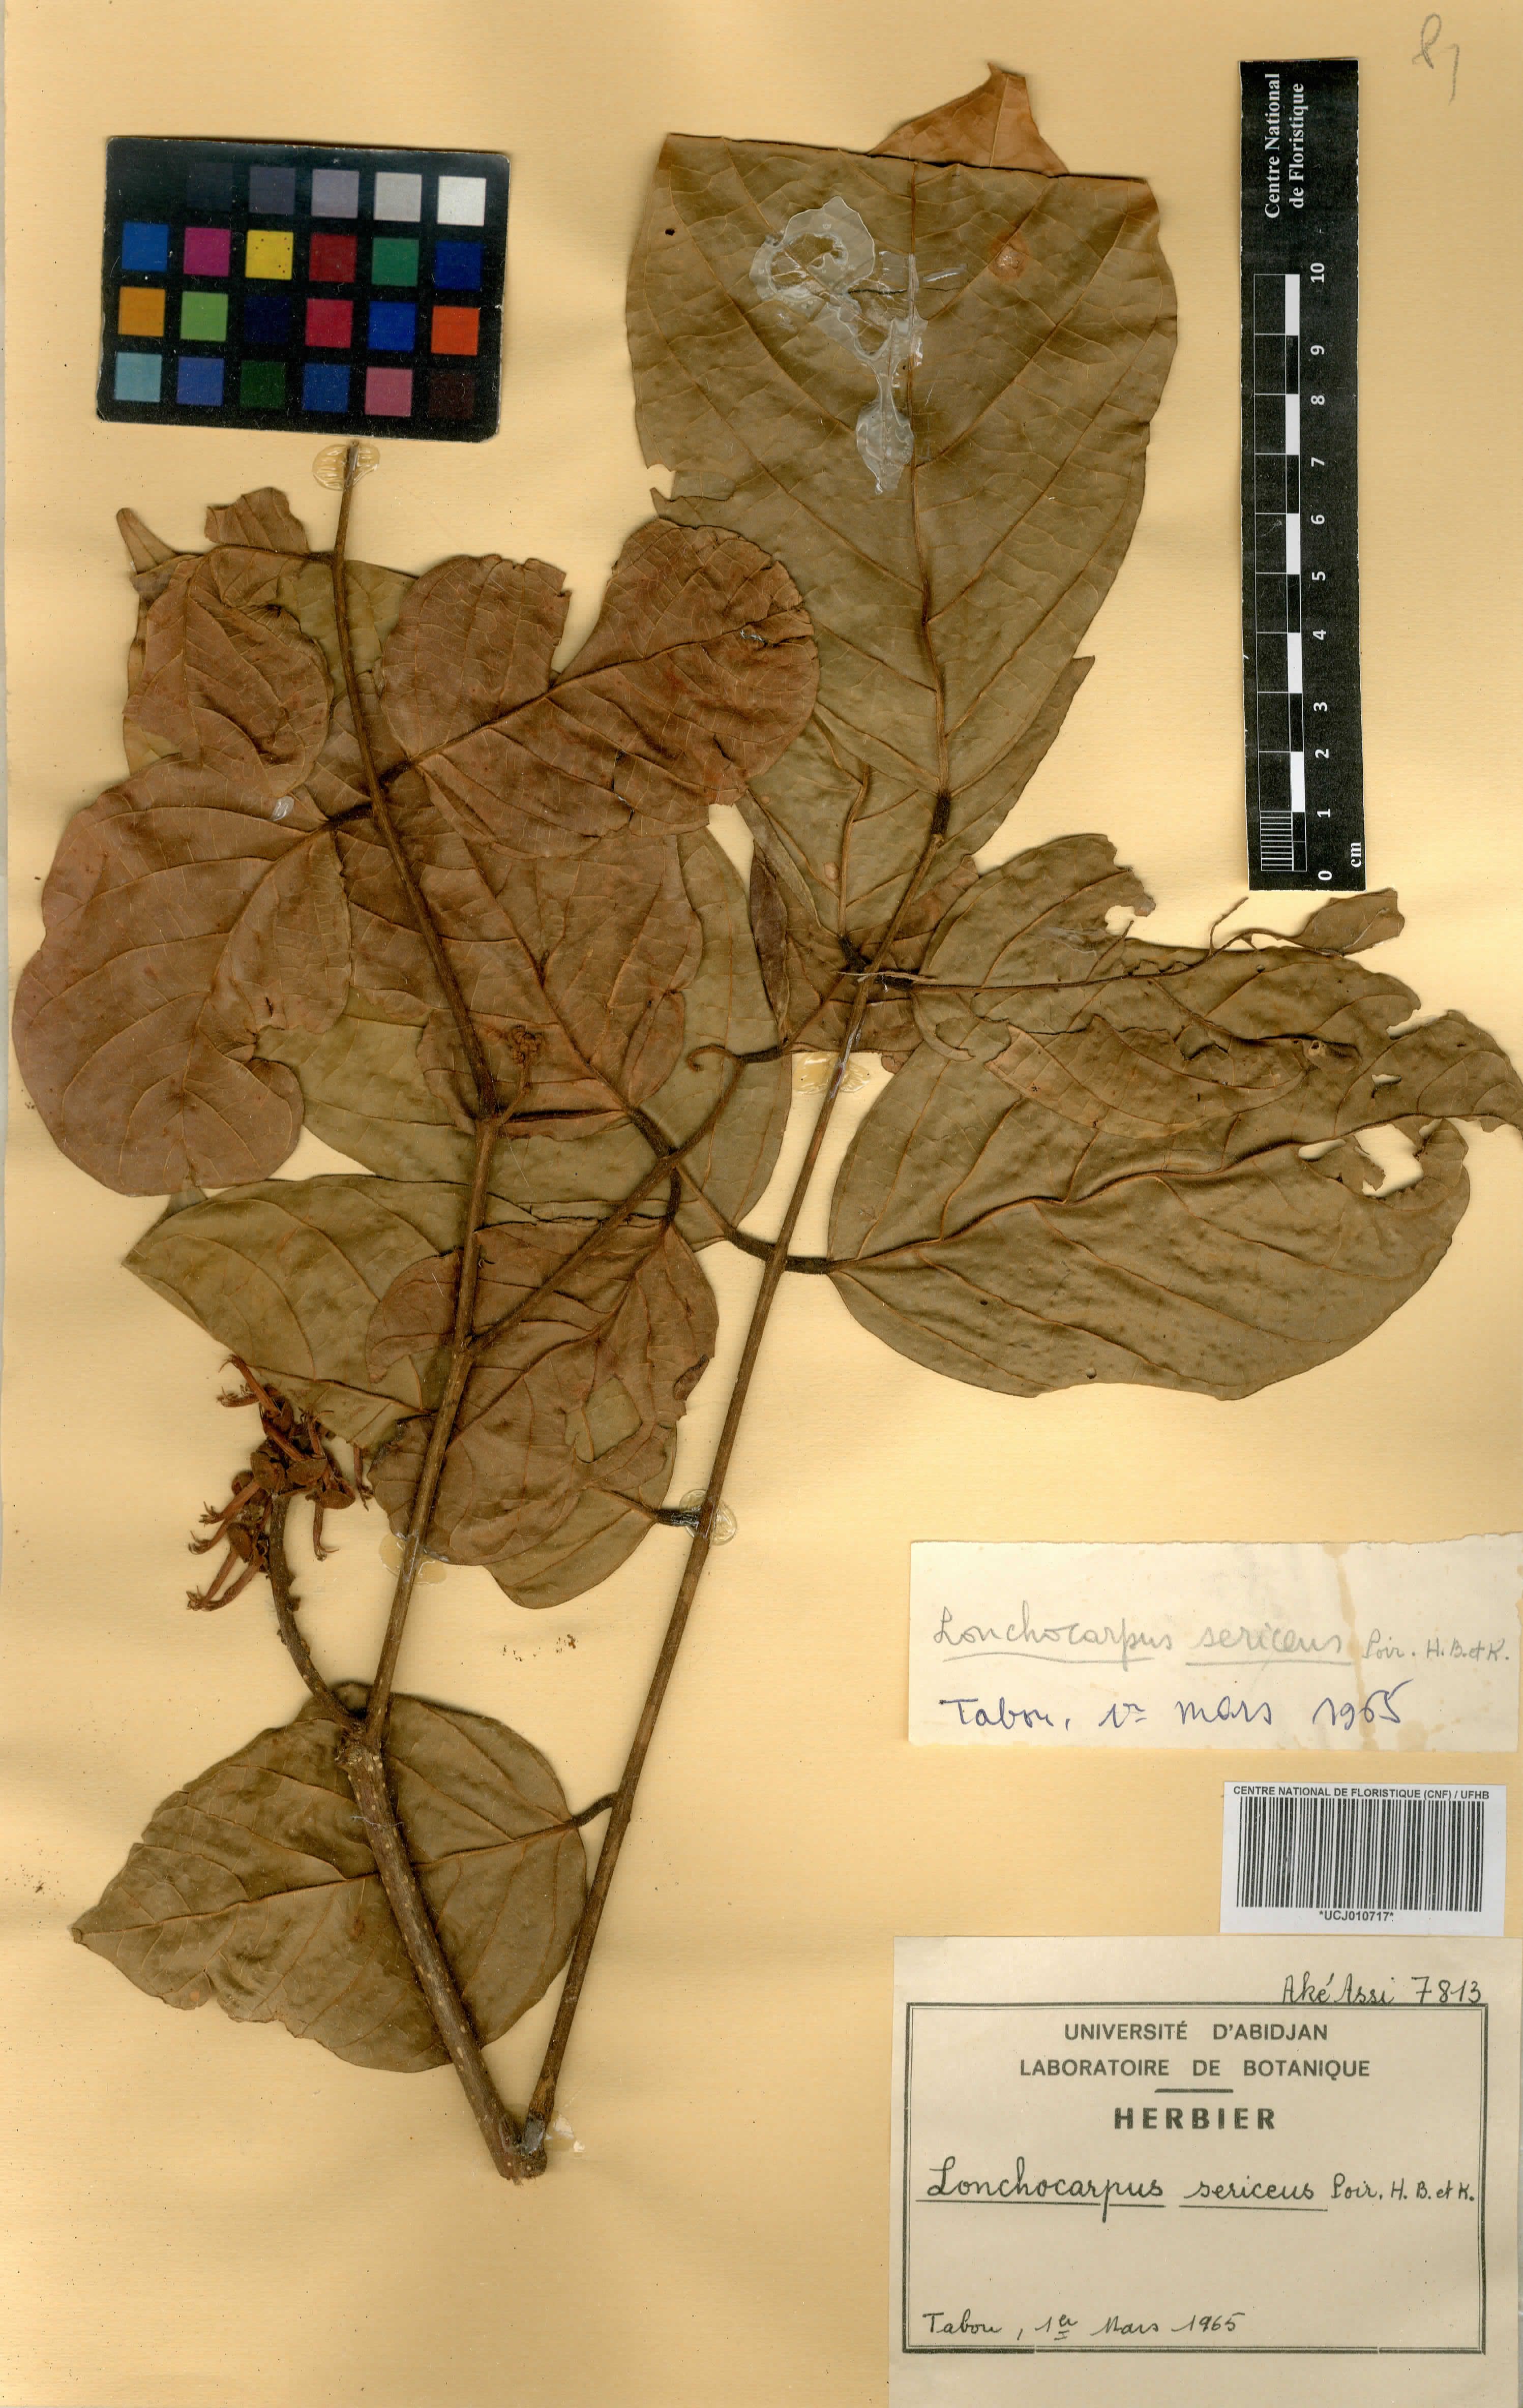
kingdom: Plantae
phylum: Tracheophyta
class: Magnoliopsida
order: Fabales
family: Fabaceae
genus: Lonchocarpus
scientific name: Lonchocarpus sericeus
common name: Savonette
